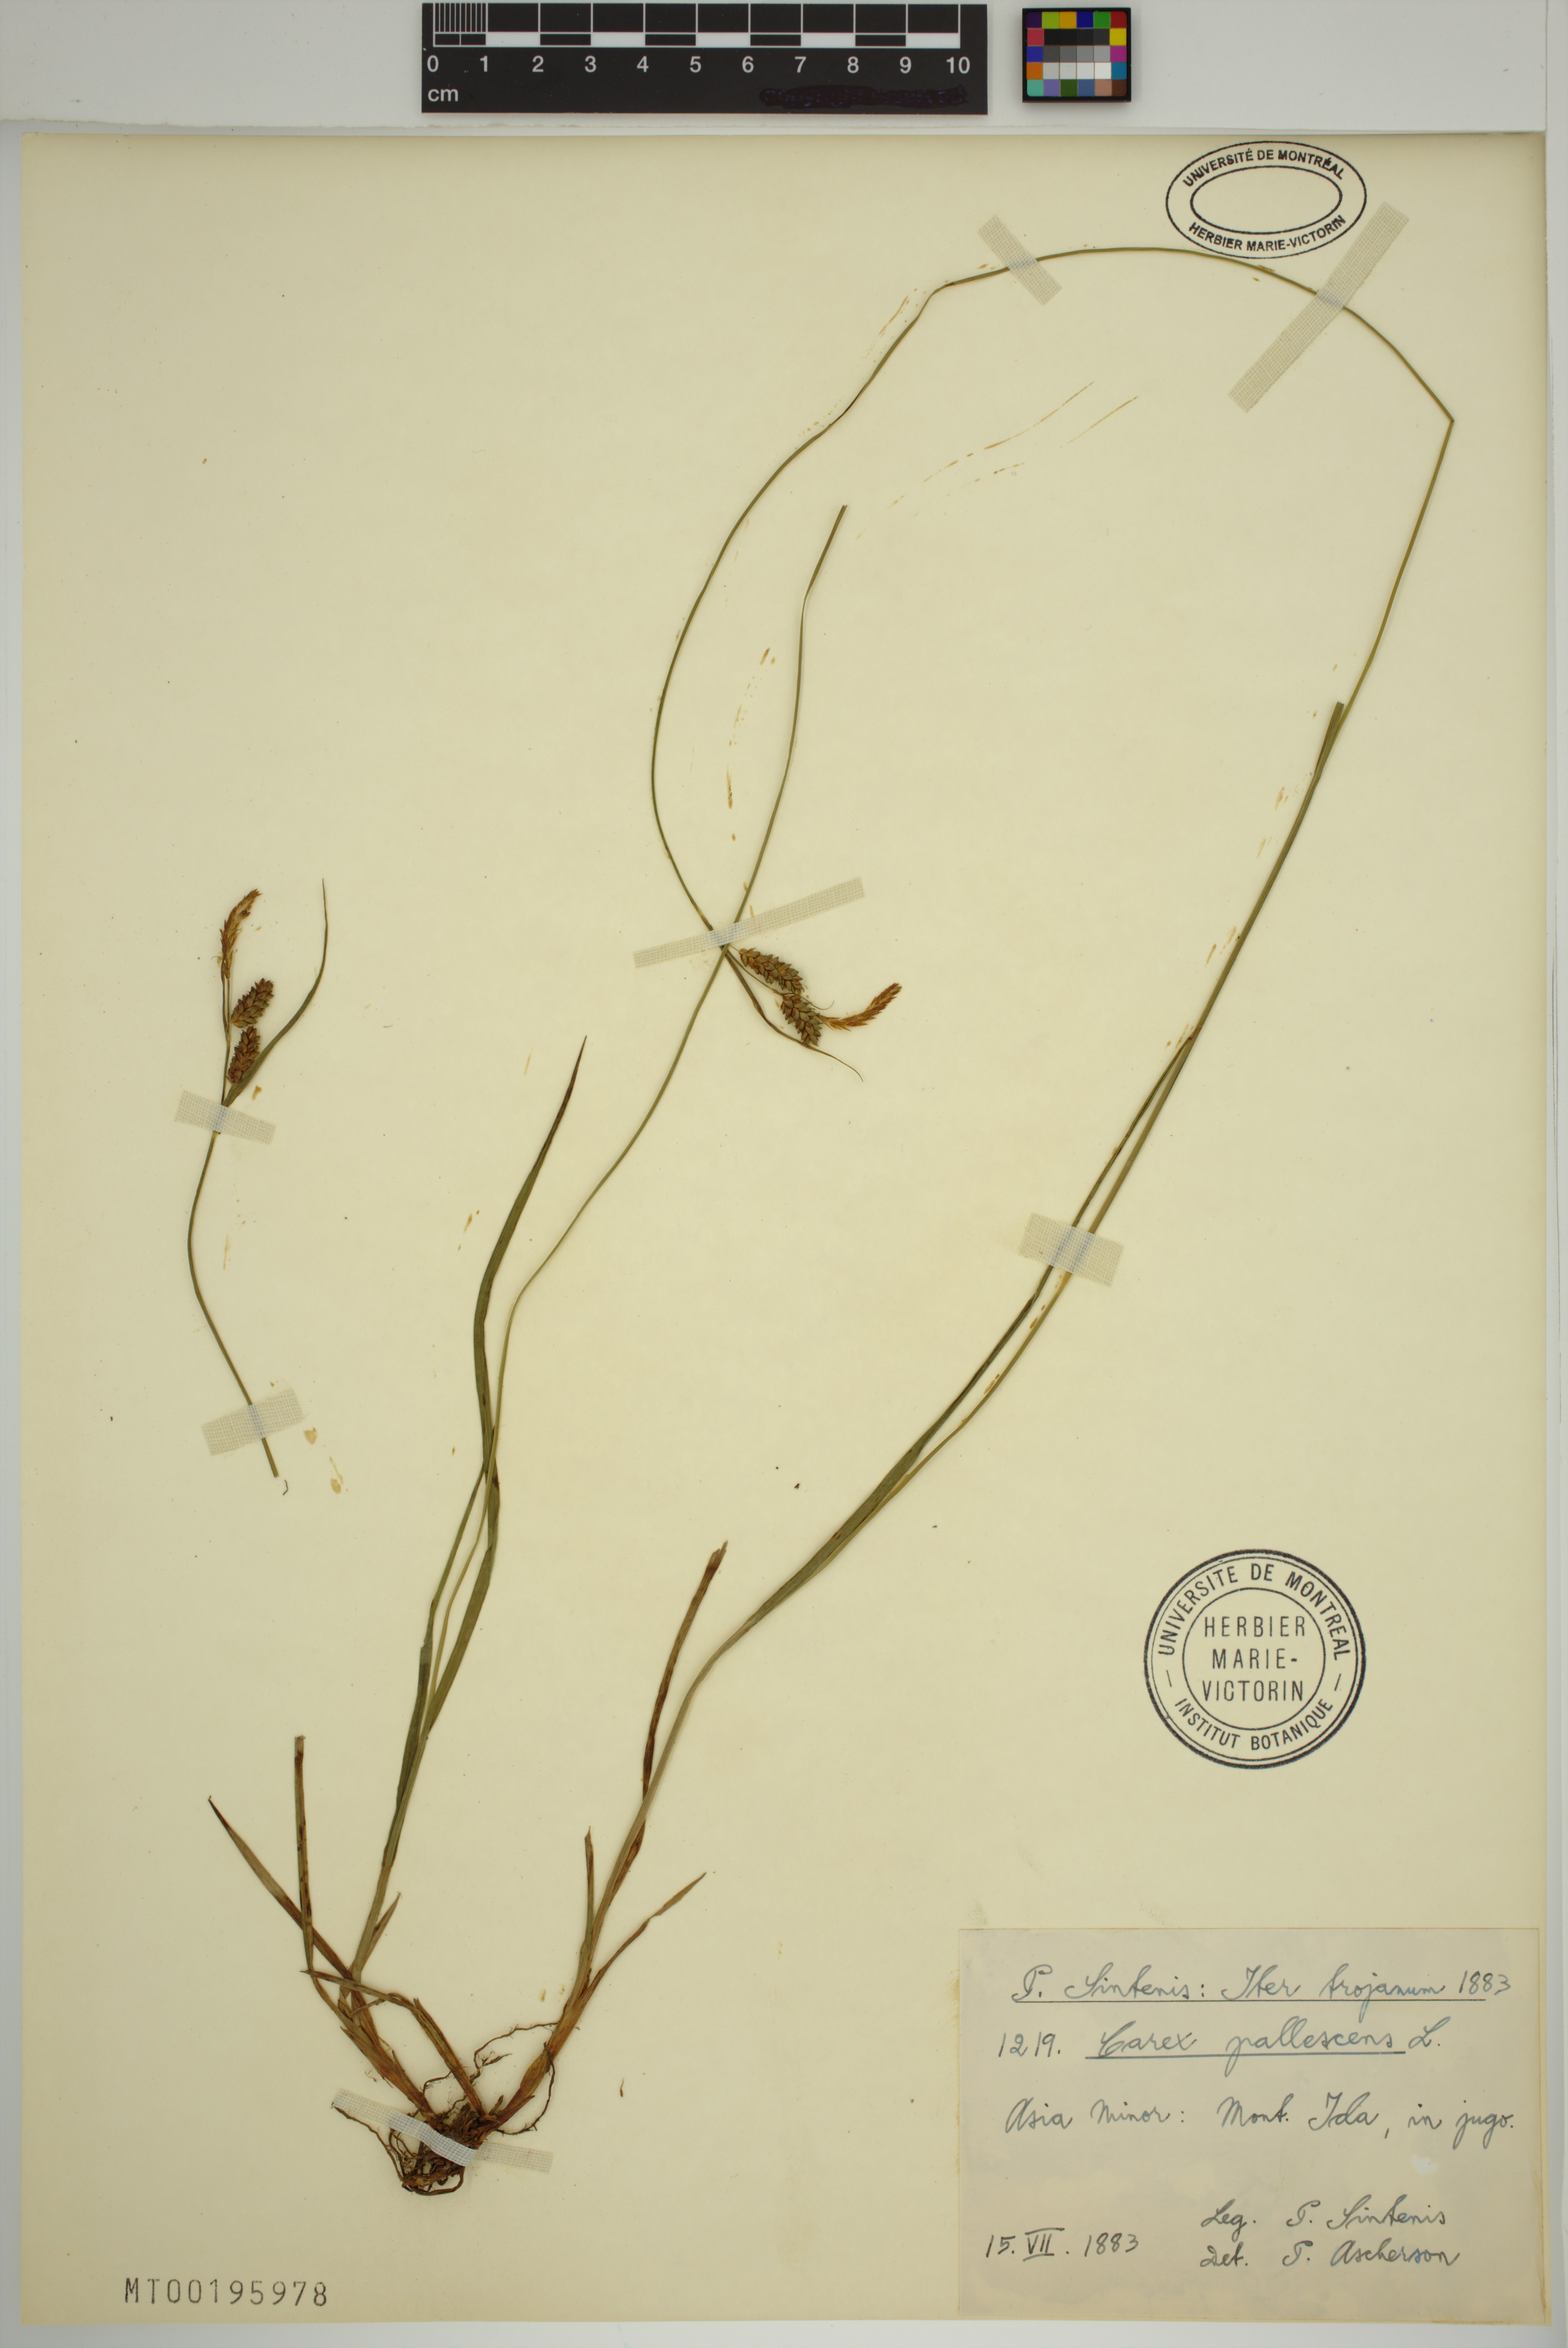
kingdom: Plantae
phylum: Tracheophyta
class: Liliopsida
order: Poales
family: Cyperaceae
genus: Carex
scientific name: Carex pallescens
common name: Pale sedge
